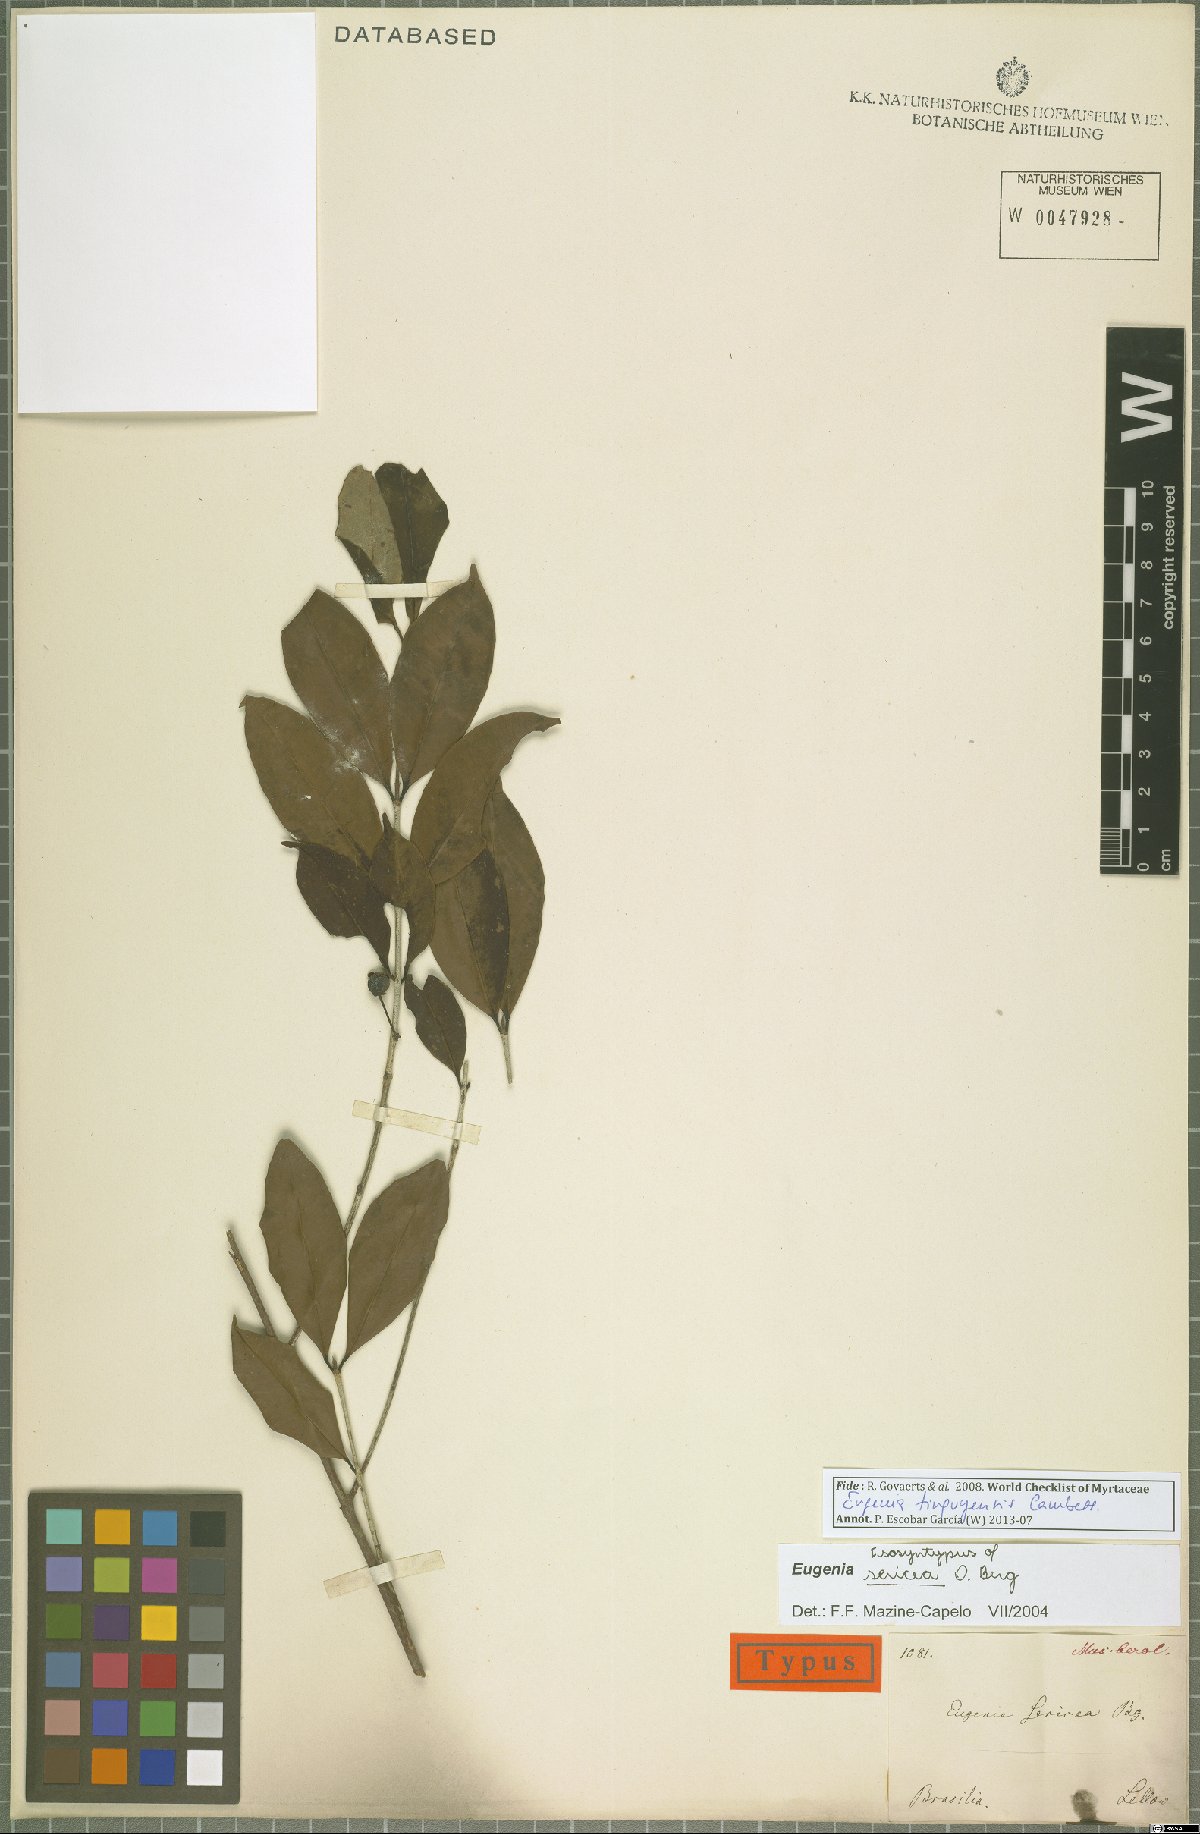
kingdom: Plantae
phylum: Tracheophyta
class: Magnoliopsida
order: Myrtales
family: Myrtaceae
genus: Eugenia
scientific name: Eugenia pisiformis
